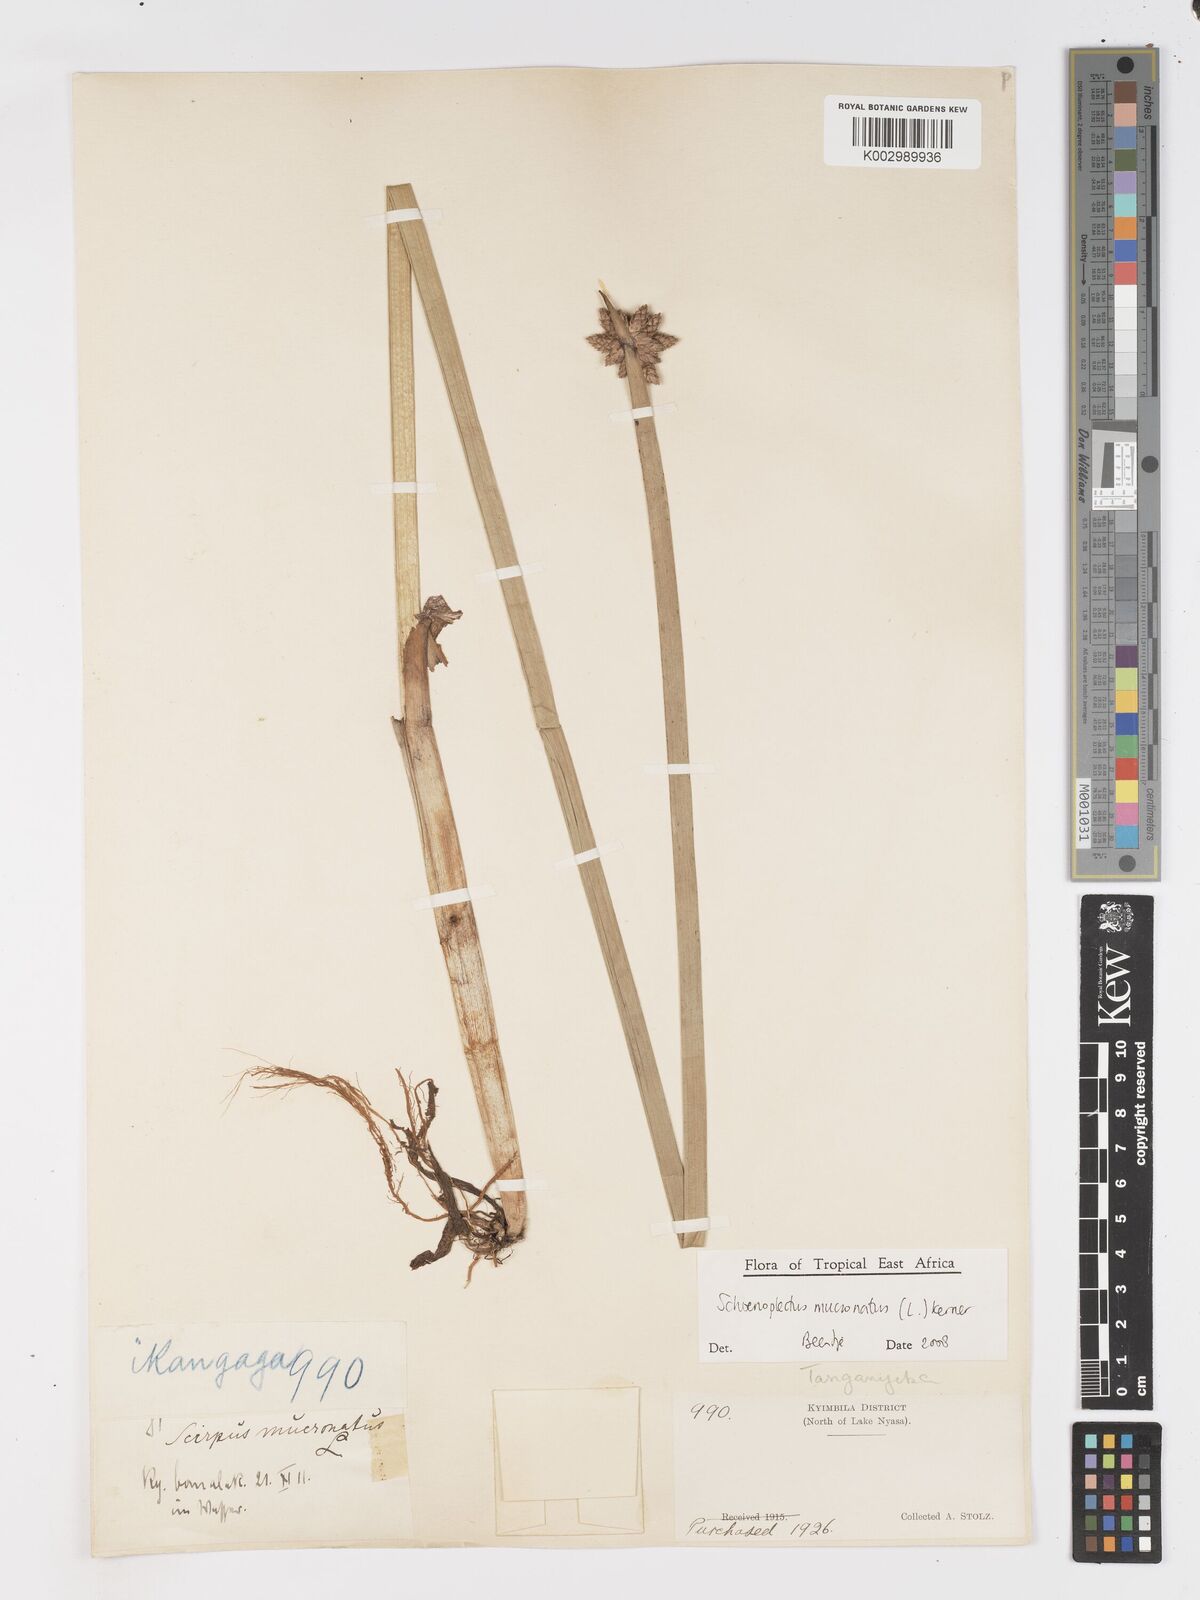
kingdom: Plantae
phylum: Tracheophyta
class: Liliopsida
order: Poales
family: Cyperaceae
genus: Schoenoplectiella
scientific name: Schoenoplectiella mucronata
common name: Bog bulrush
